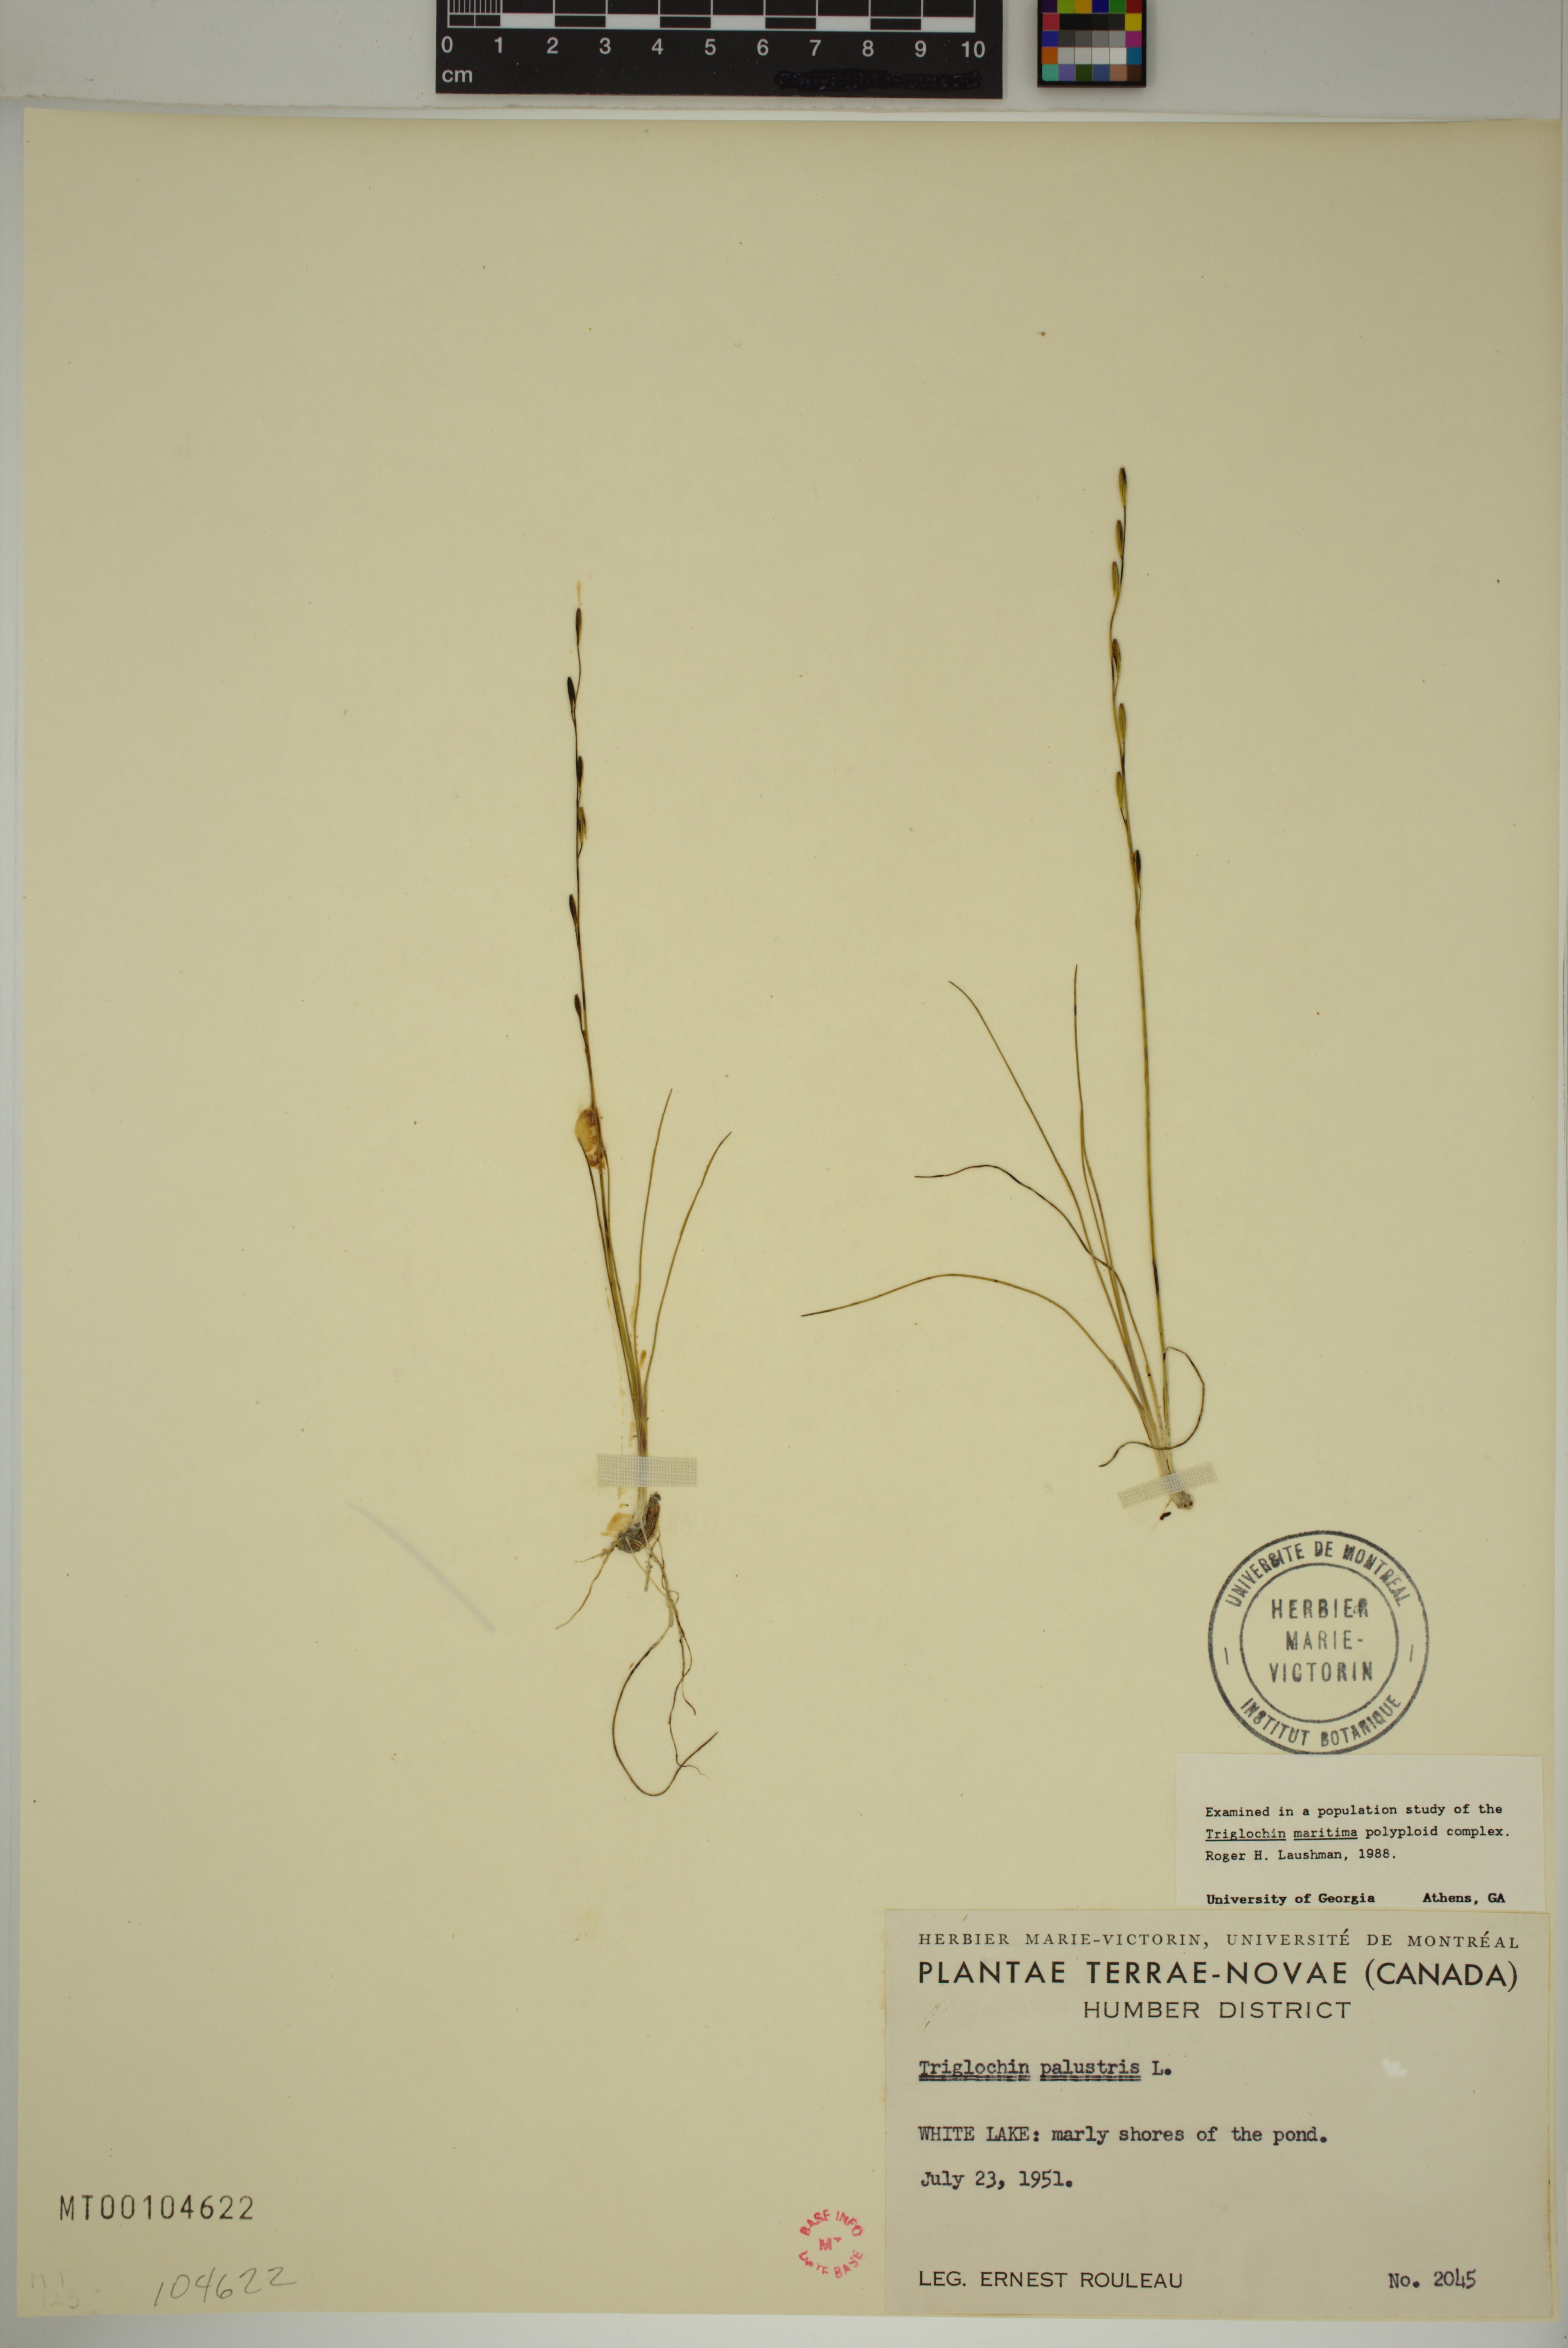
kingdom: Plantae
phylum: Tracheophyta
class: Liliopsida
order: Alismatales
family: Juncaginaceae
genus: Triglochin
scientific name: Triglochin palustris
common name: Marsh arrowgrass
